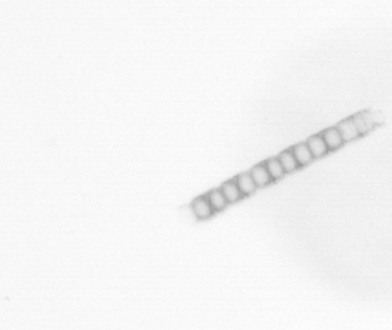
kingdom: Chromista
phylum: Ochrophyta
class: Bacillariophyceae
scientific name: Bacillariophyceae
